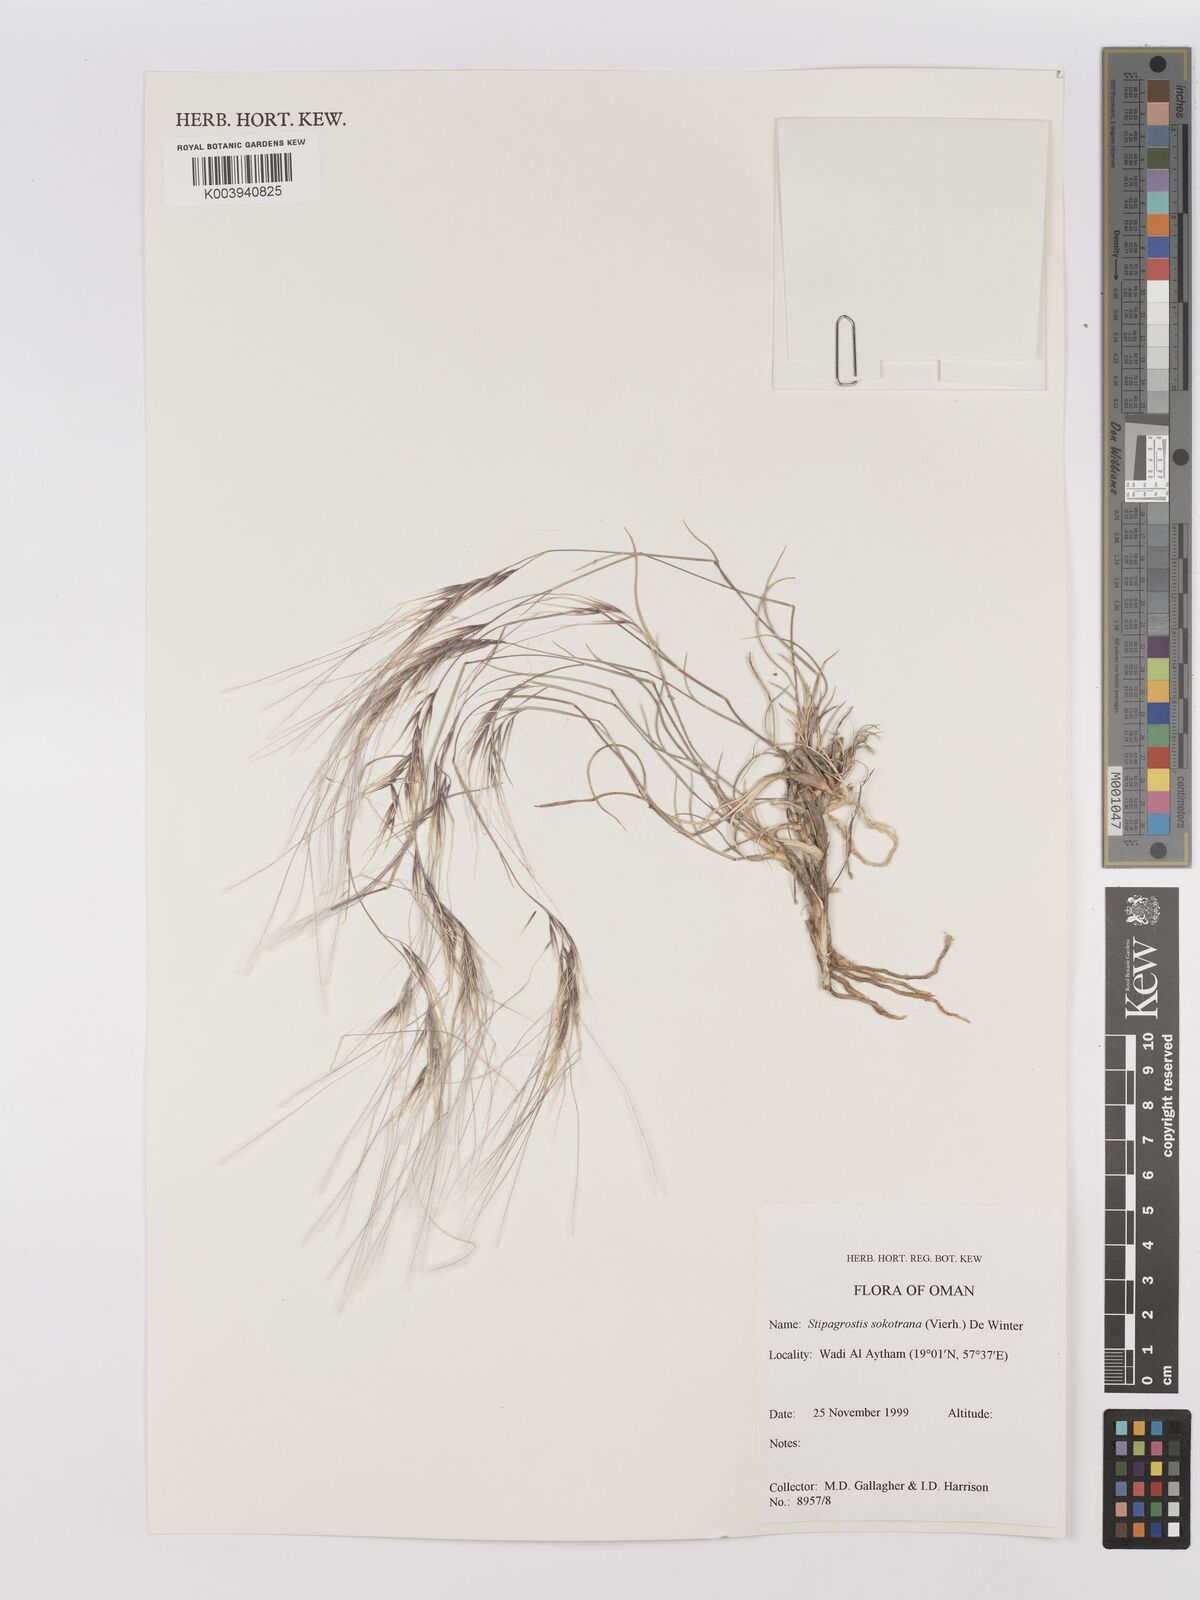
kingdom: Plantae
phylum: Tracheophyta
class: Liliopsida
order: Poales
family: Poaceae
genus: Stipagrostis
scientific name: Stipagrostis sokotrana
